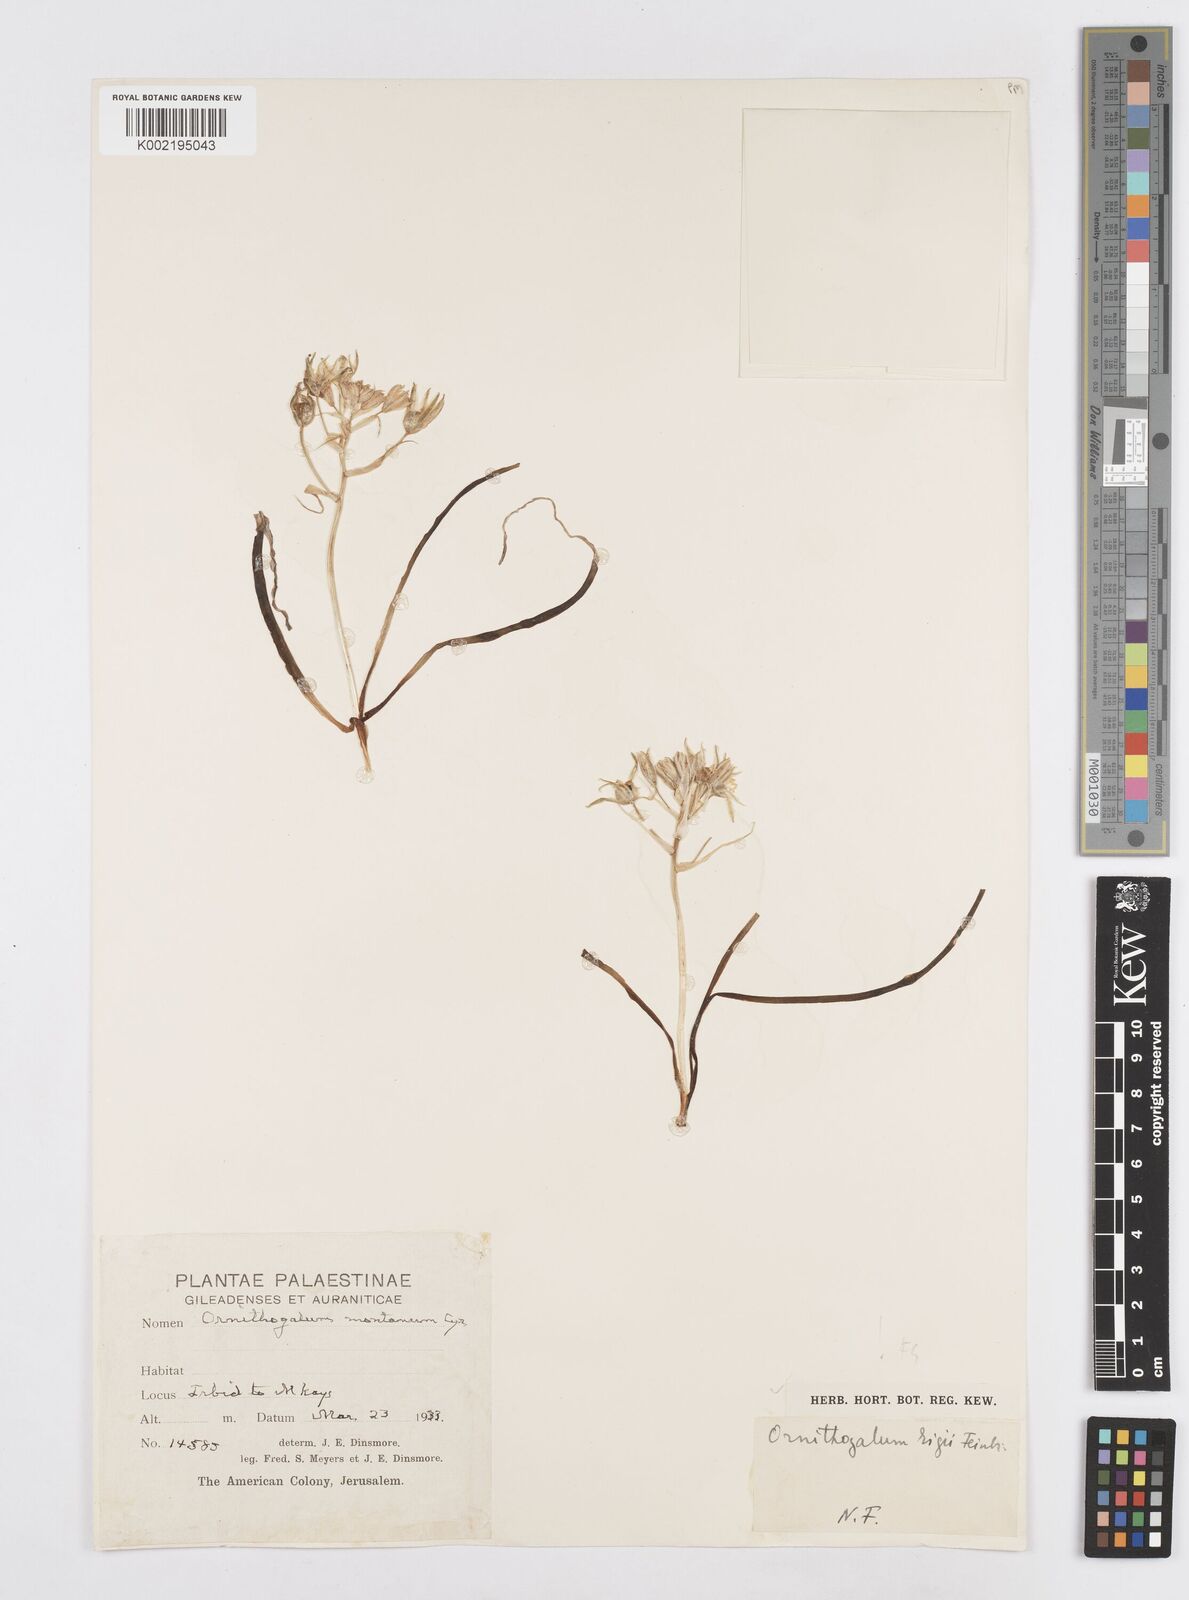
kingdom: Plantae
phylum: Tracheophyta
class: Liliopsida
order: Asparagales
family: Asparagaceae
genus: Ornithogalum
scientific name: Ornithogalum neurostegium
